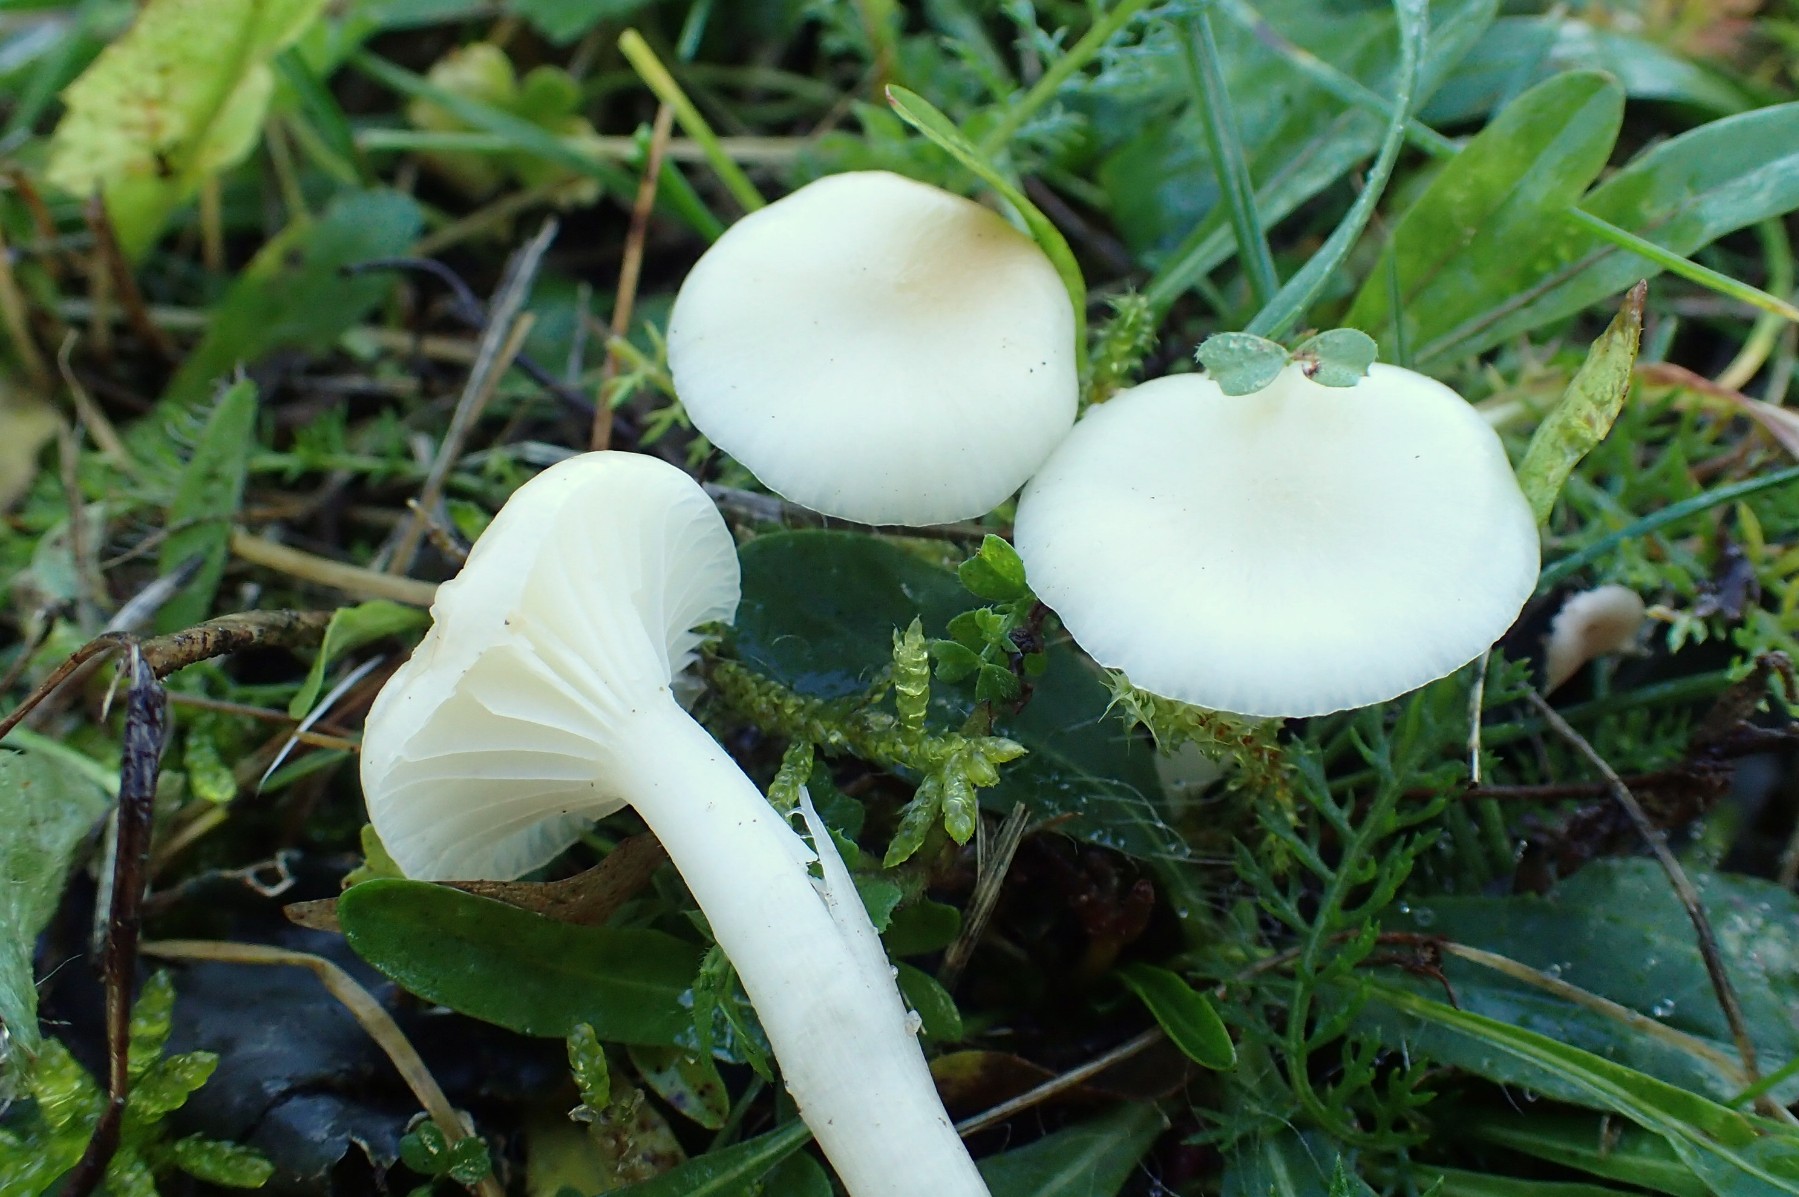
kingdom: Fungi
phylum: Basidiomycota
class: Agaricomycetes
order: Agaricales
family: Hygrophoraceae
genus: Cuphophyllus
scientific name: Cuphophyllus virgineus
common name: snehvid vokshat
